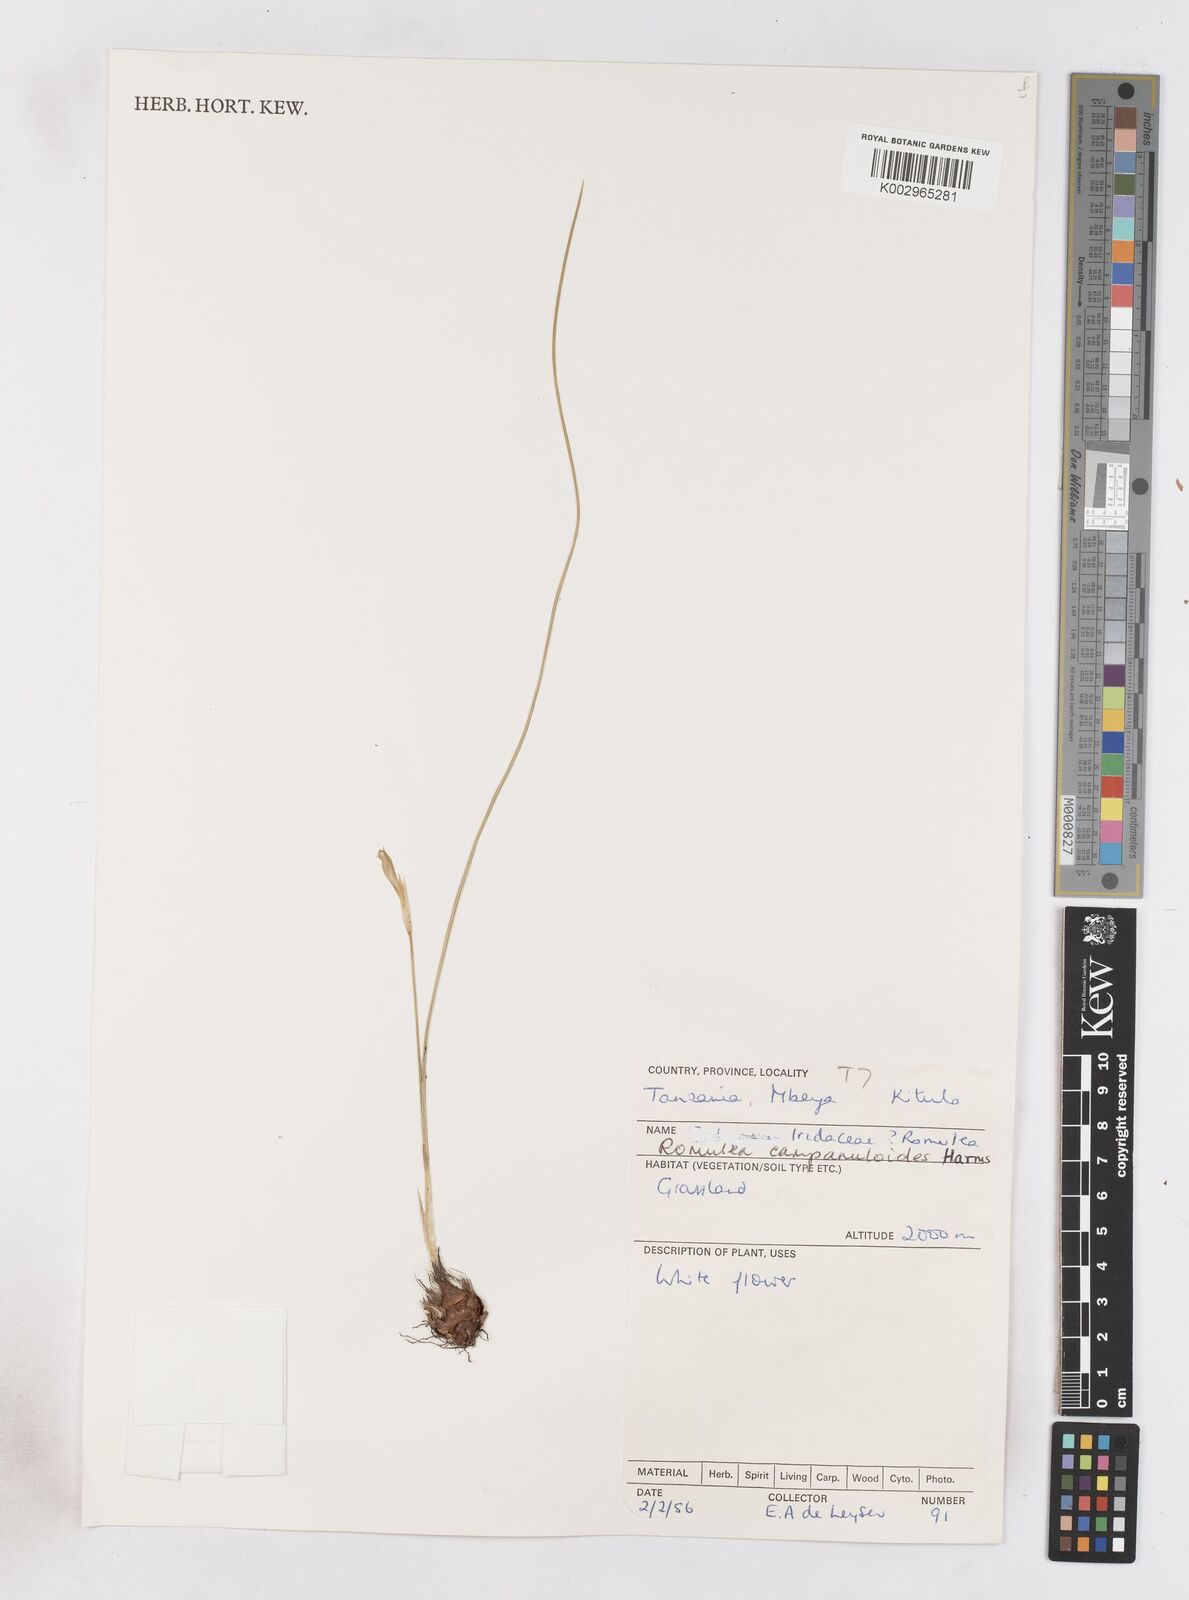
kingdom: Plantae
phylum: Tracheophyta
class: Liliopsida
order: Asparagales
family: Iridaceae
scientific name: Iridaceae
